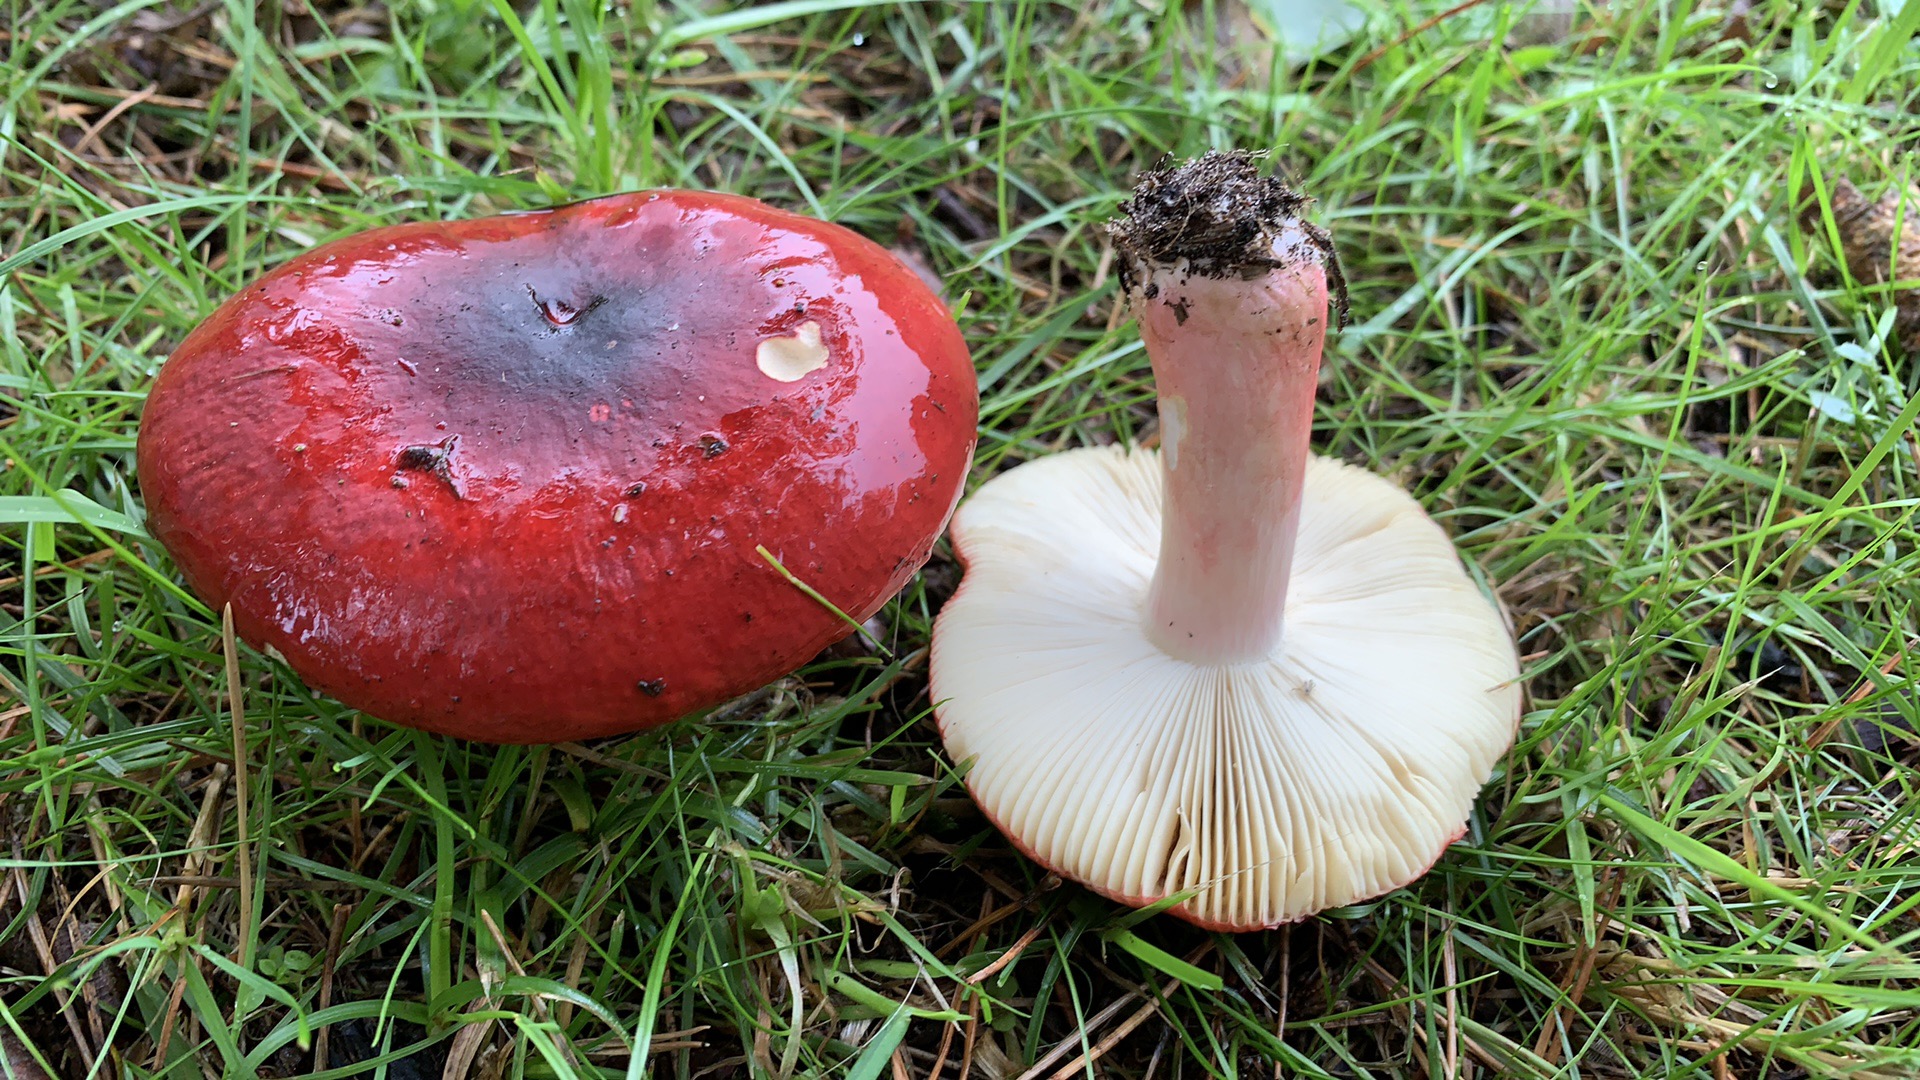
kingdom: Fungi
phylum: Basidiomycota
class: Agaricomycetes
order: Russulales
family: Russulaceae
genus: Russula
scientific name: Russula xerampelina
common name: hummer-skørhat
